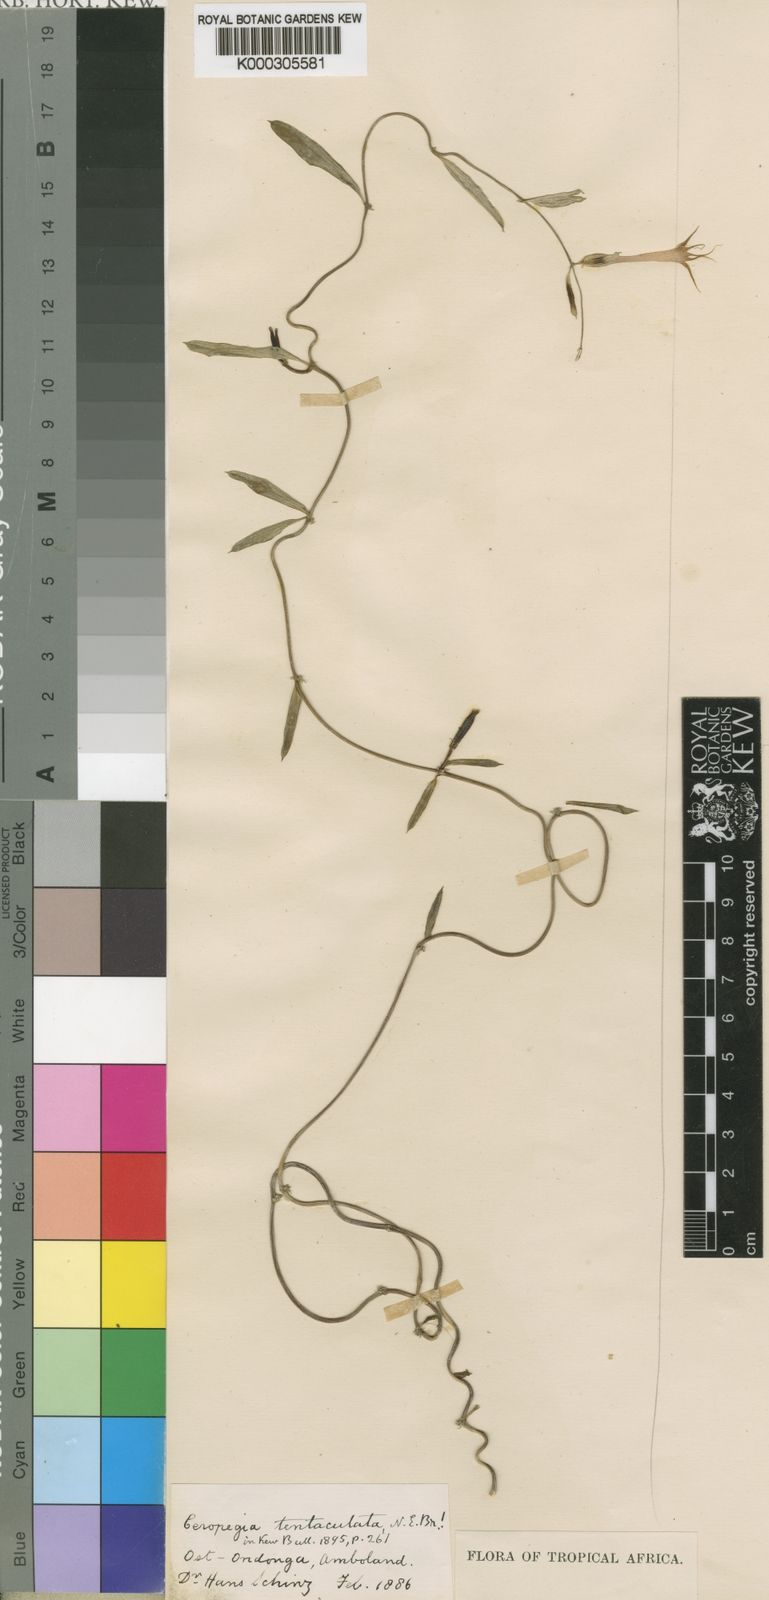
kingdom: Plantae
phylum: Tracheophyta
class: Magnoliopsida
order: Gentianales
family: Apocynaceae
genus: Ceropegia
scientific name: Ceropegia multiflora
